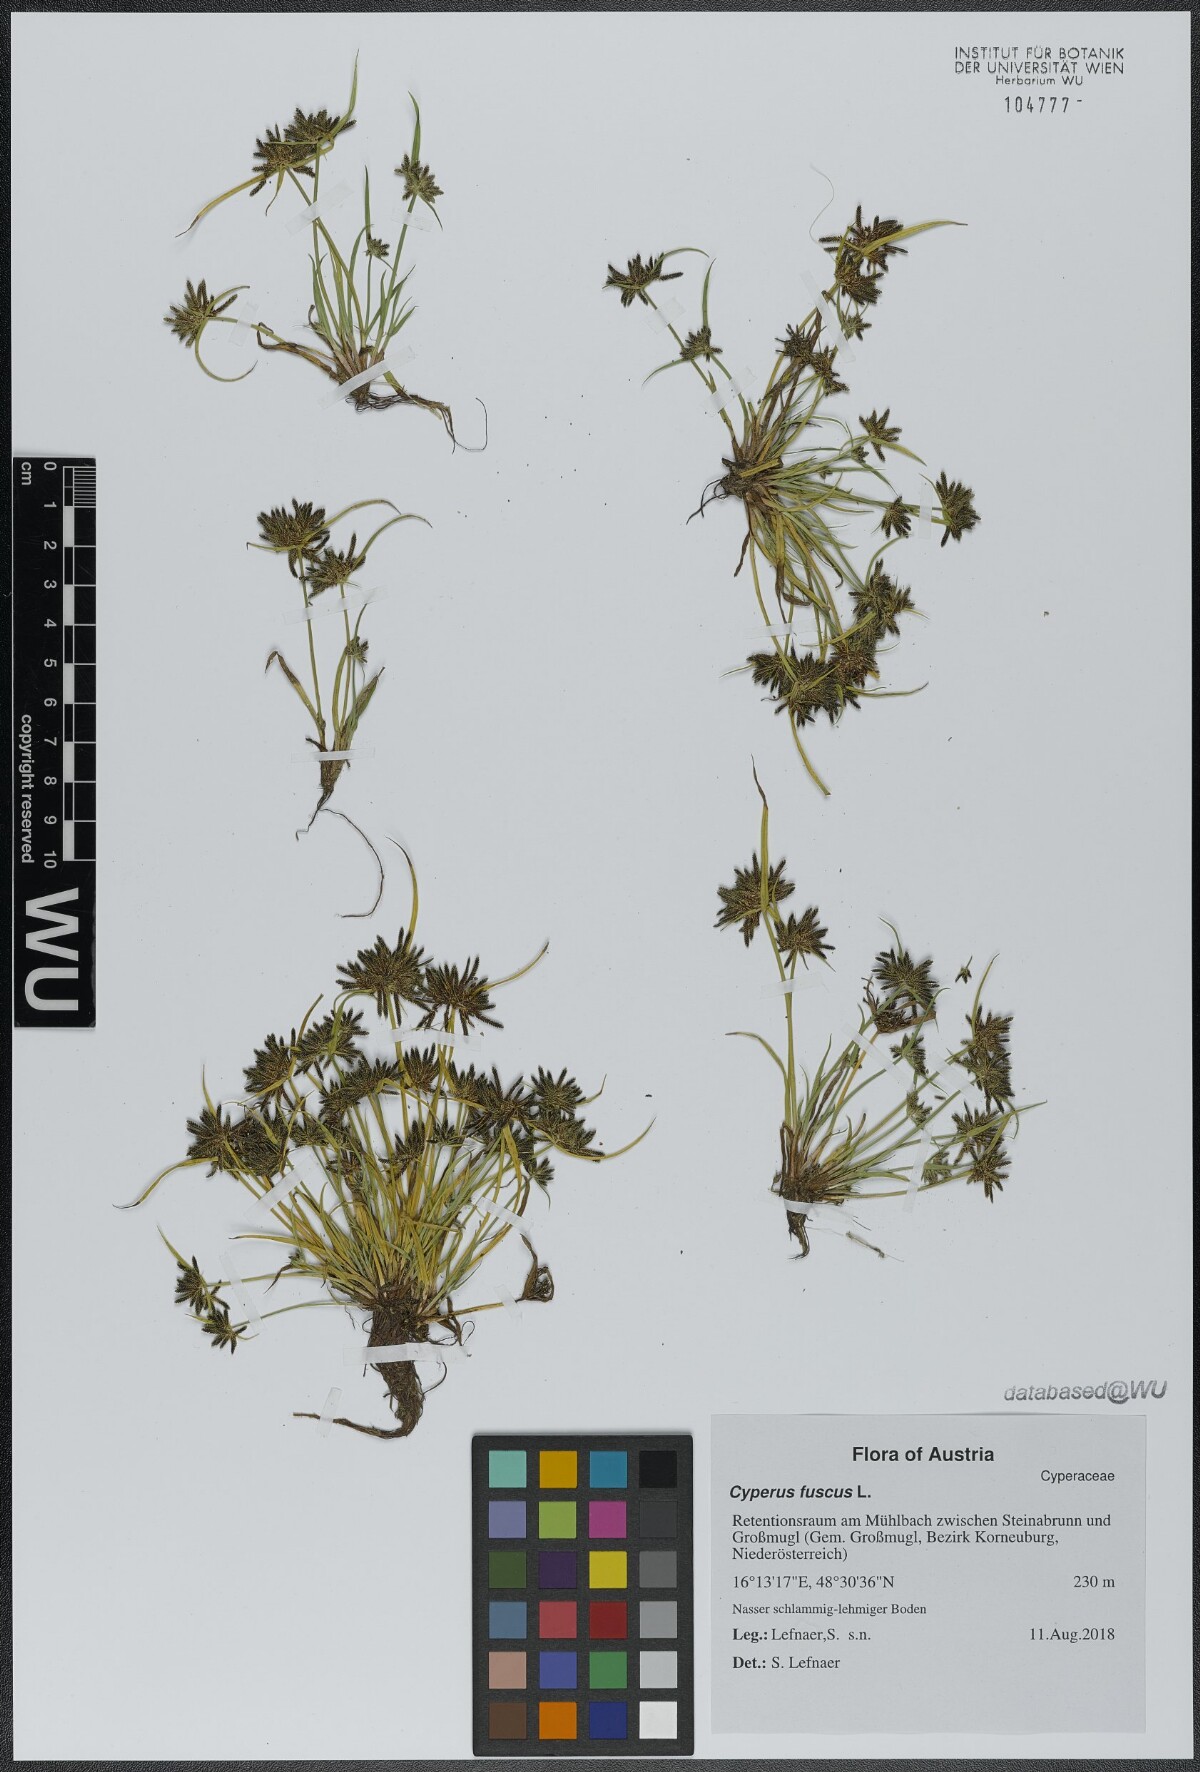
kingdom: Plantae
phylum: Tracheophyta
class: Liliopsida
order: Poales
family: Cyperaceae
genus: Cyperus
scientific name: Cyperus fuscus
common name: Brown galingale
